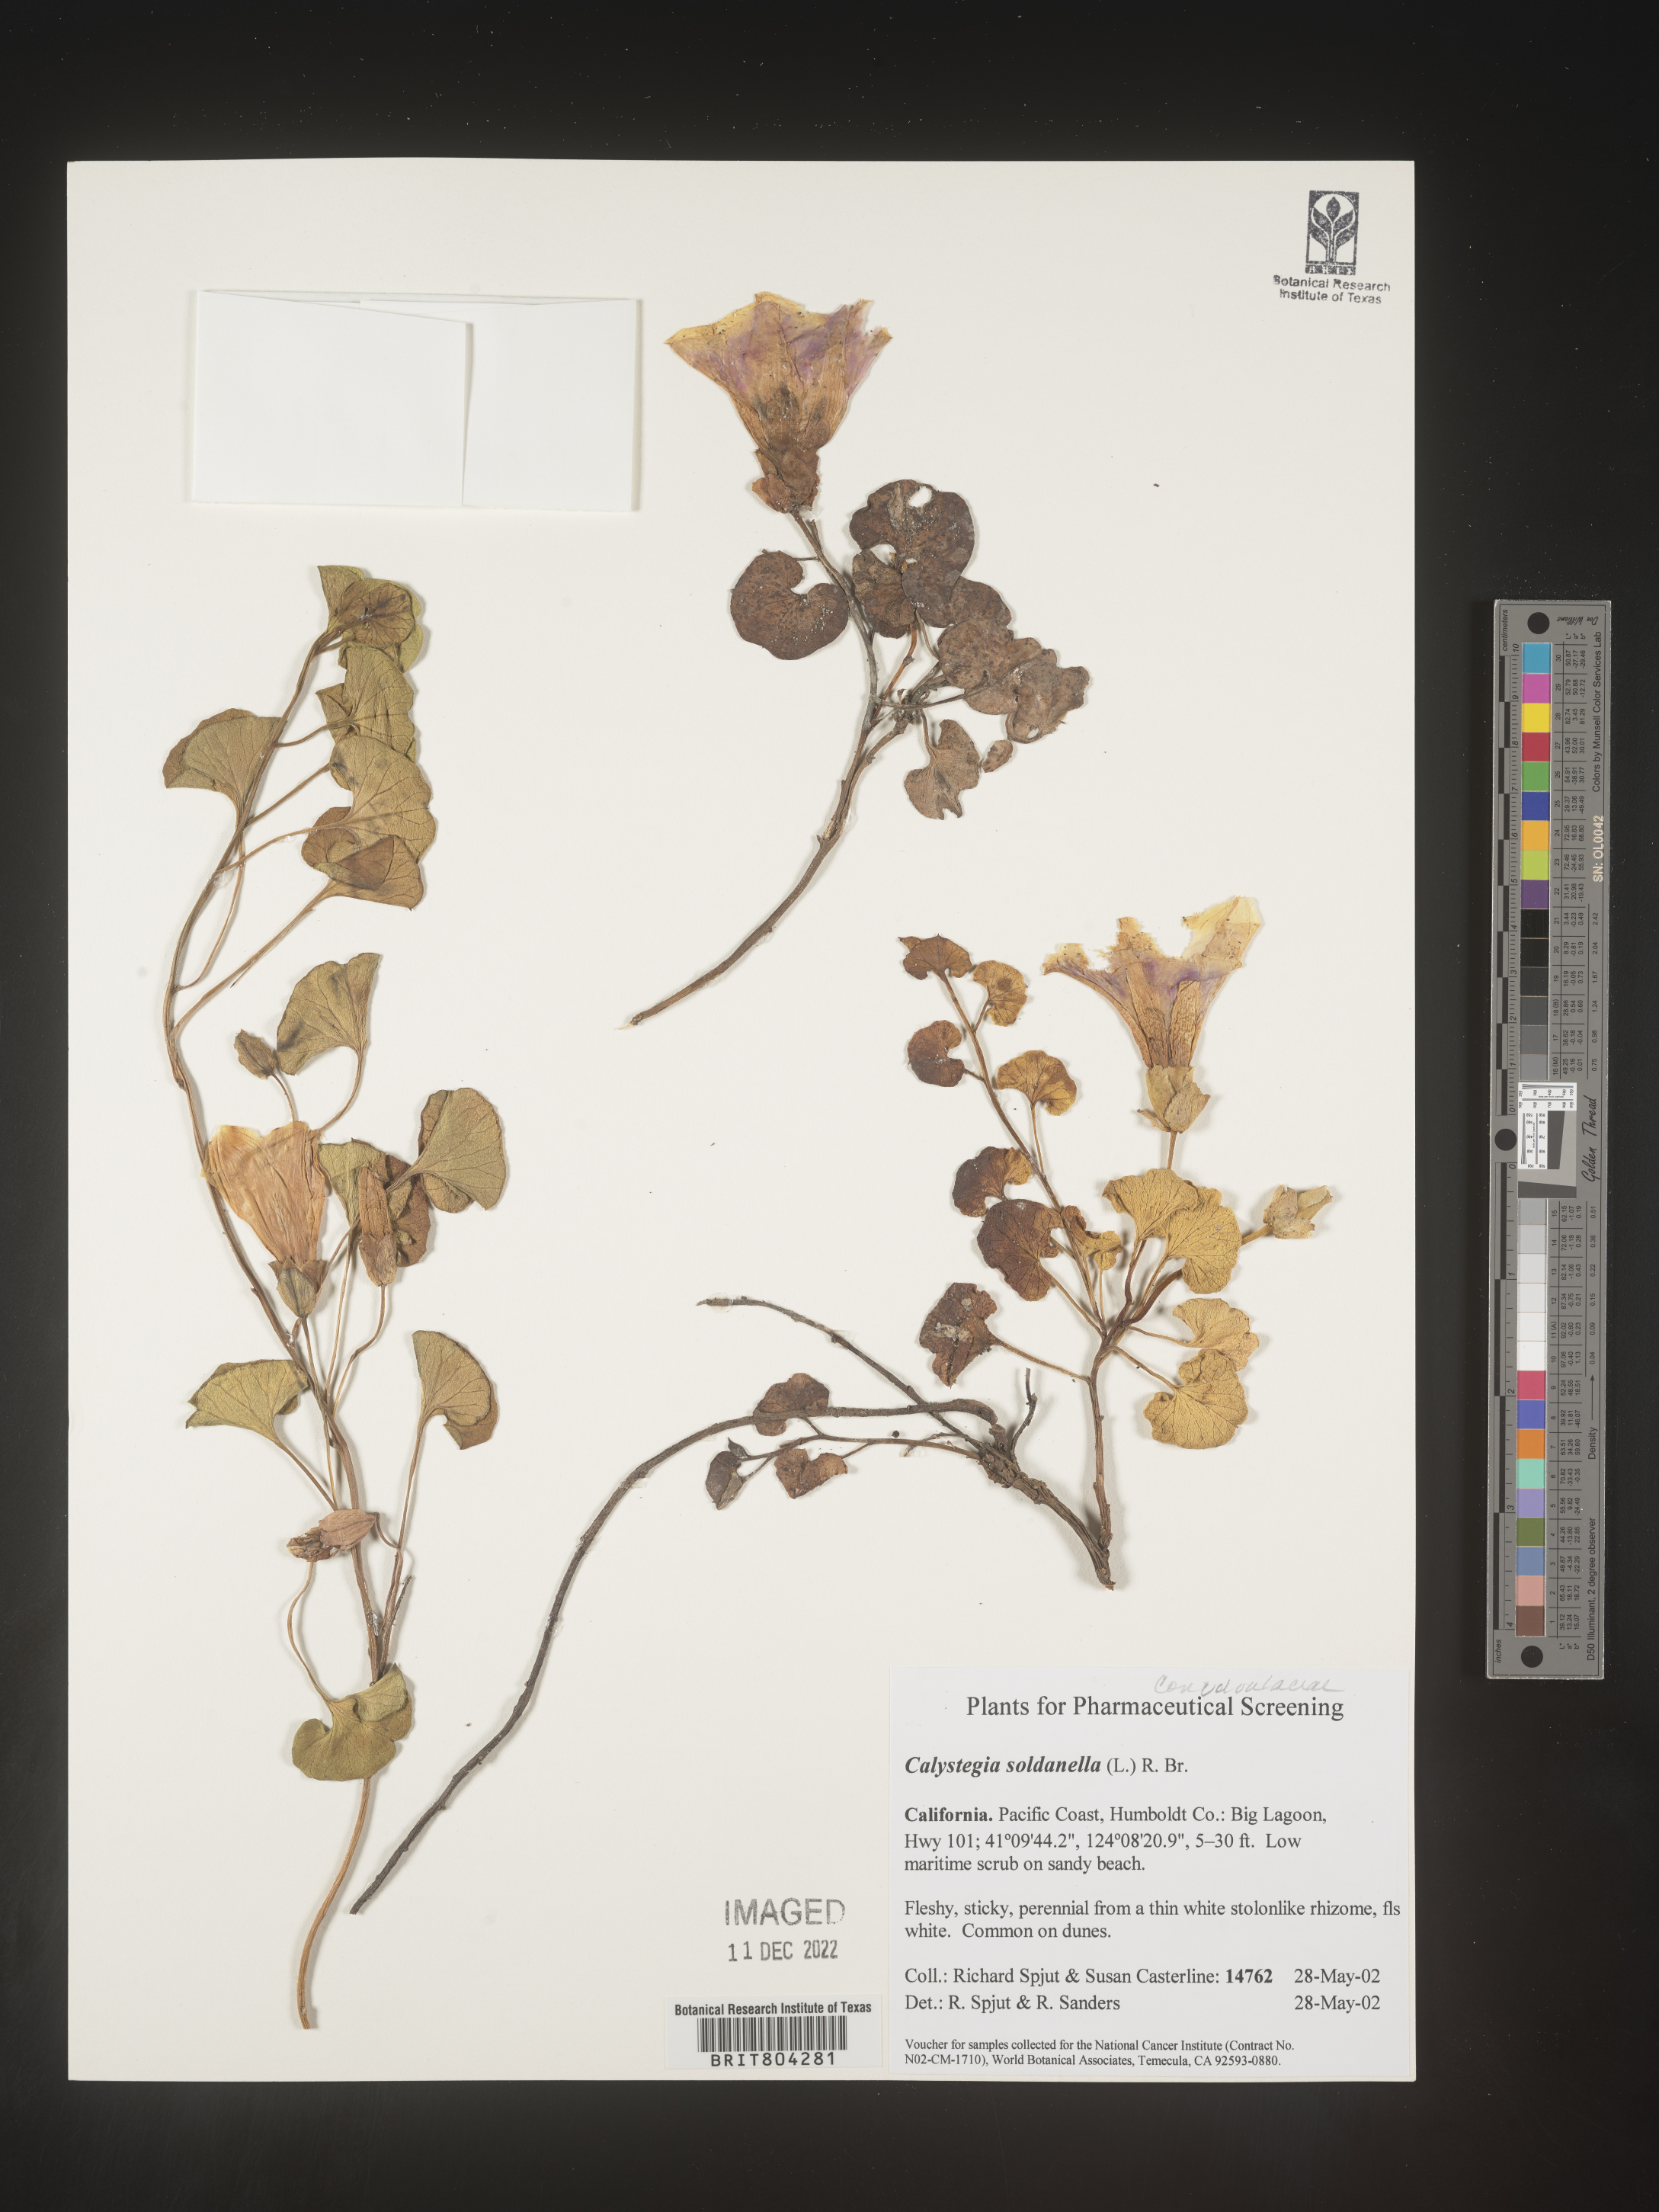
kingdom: Plantae
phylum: Tracheophyta
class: Magnoliopsida
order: Solanales
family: Convolvulaceae
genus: Calystegia
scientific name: Calystegia
